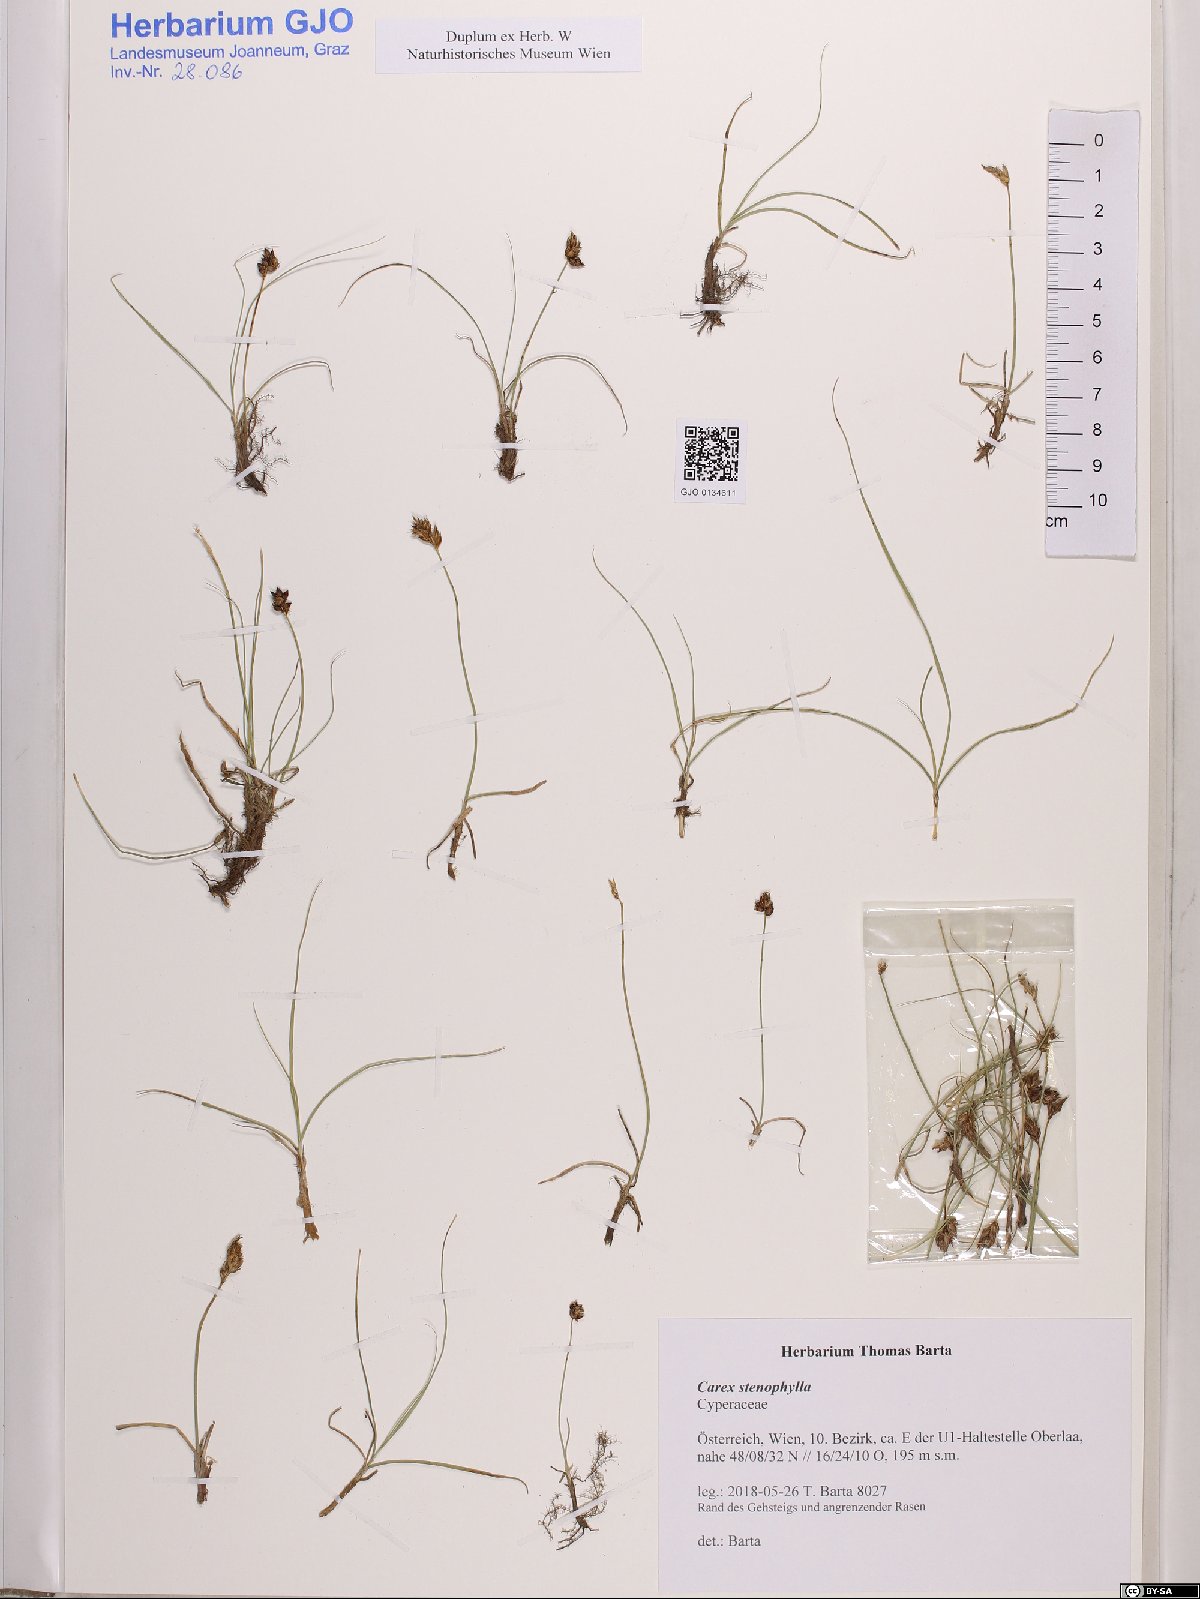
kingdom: Plantae
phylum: Tracheophyta
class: Liliopsida
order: Poales
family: Cyperaceae
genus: Carex
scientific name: Carex stenophylla
